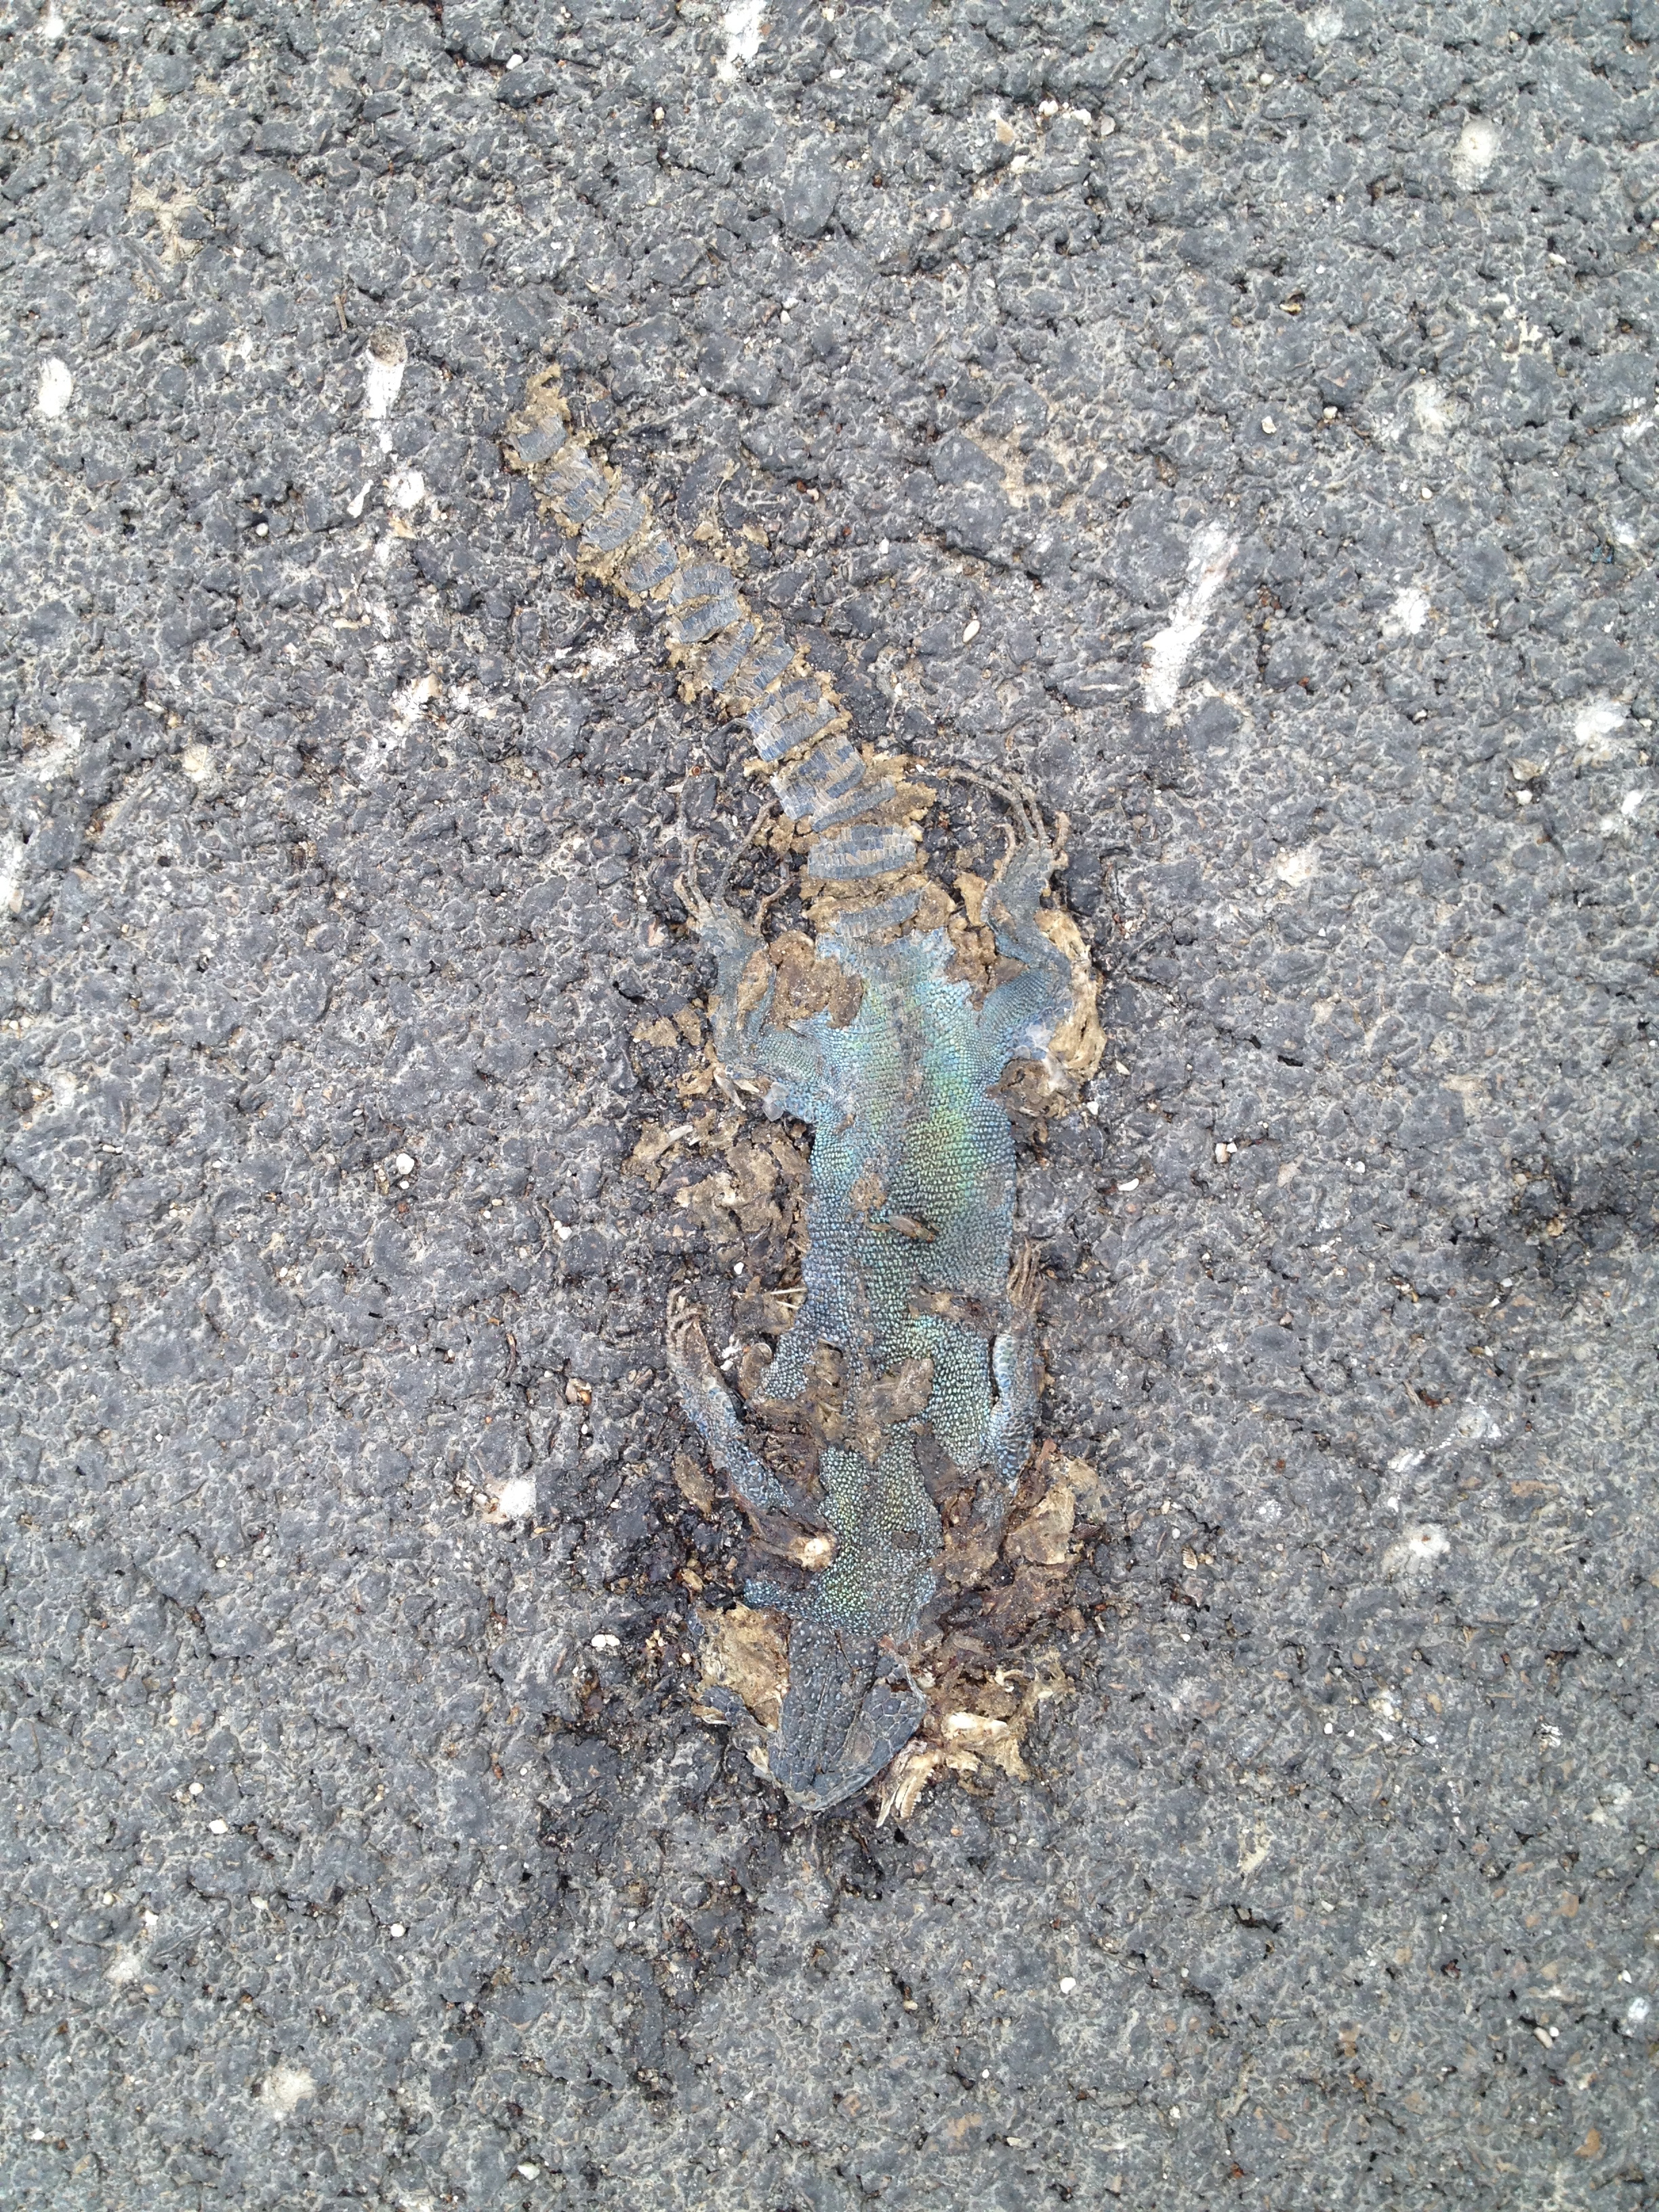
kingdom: Animalia
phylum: Chordata
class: Squamata
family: Lacertidae
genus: Lacerta
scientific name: Lacerta viridis
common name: European green lizard
